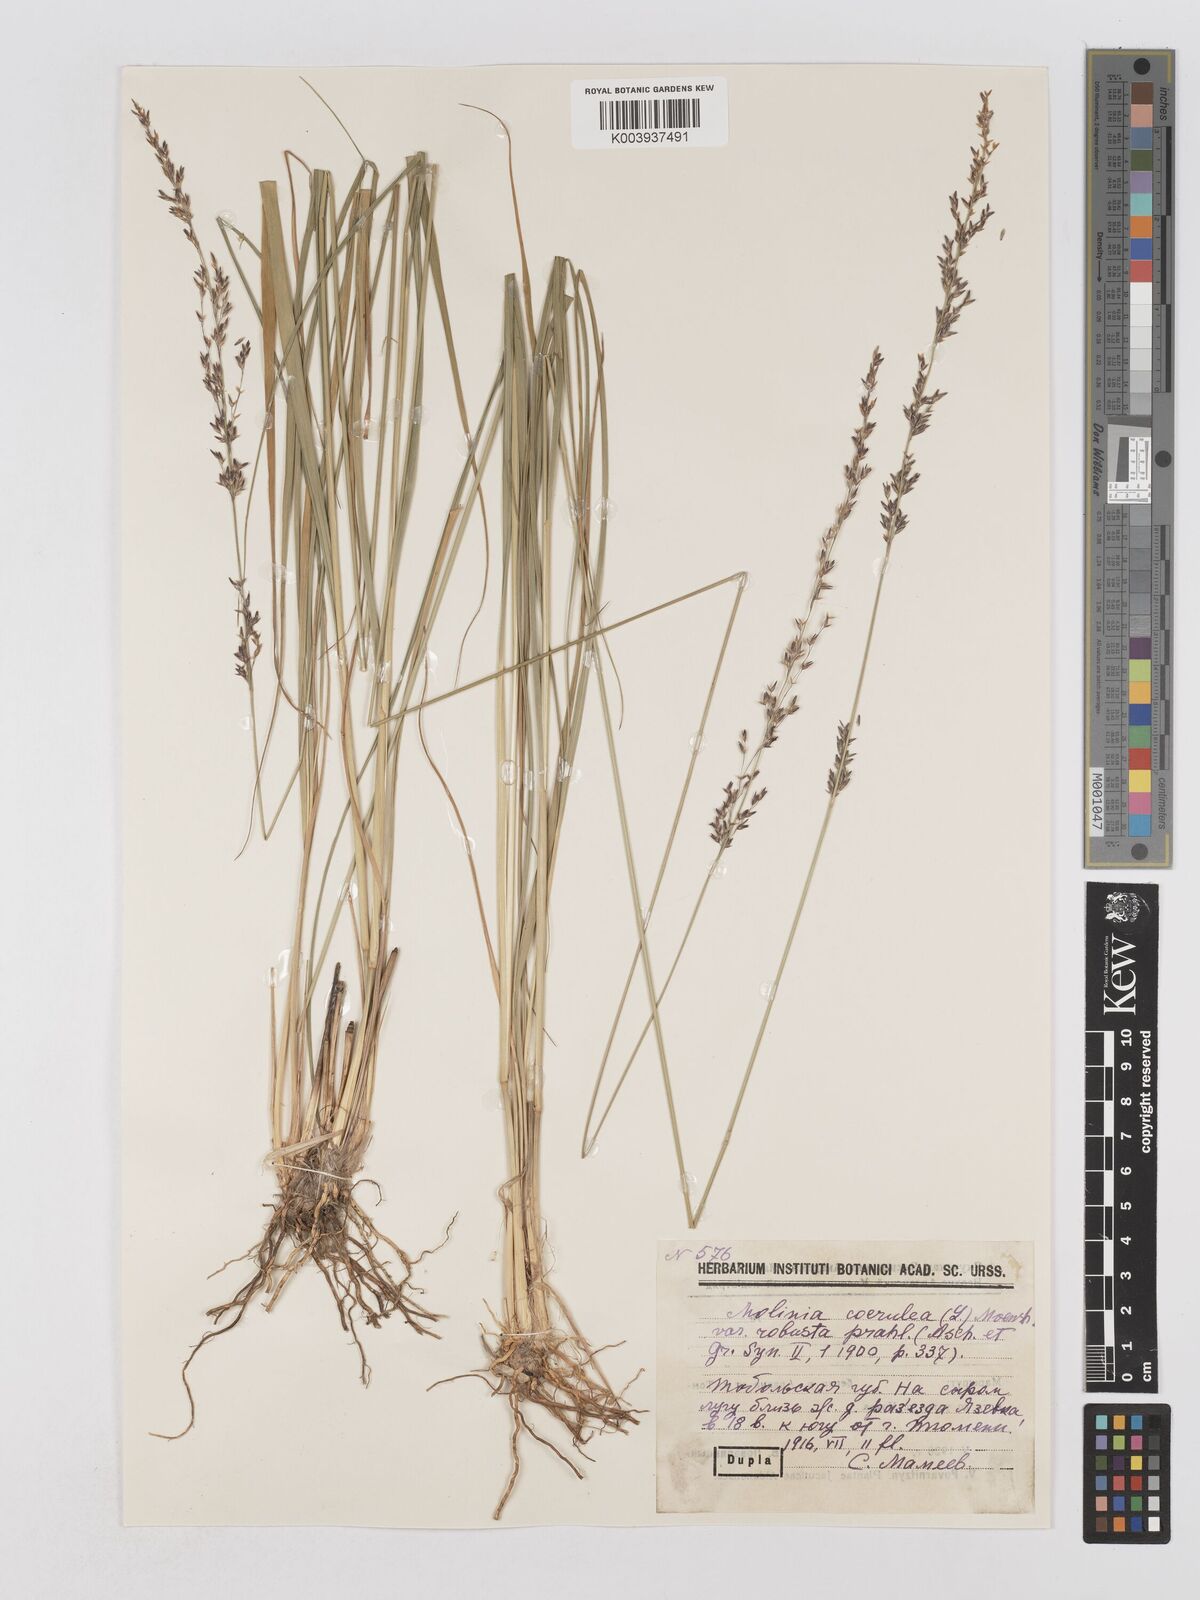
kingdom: Plantae
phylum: Tracheophyta
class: Liliopsida
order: Poales
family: Poaceae
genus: Molinia
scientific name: Molinia caerulea
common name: Purple moor-grass
